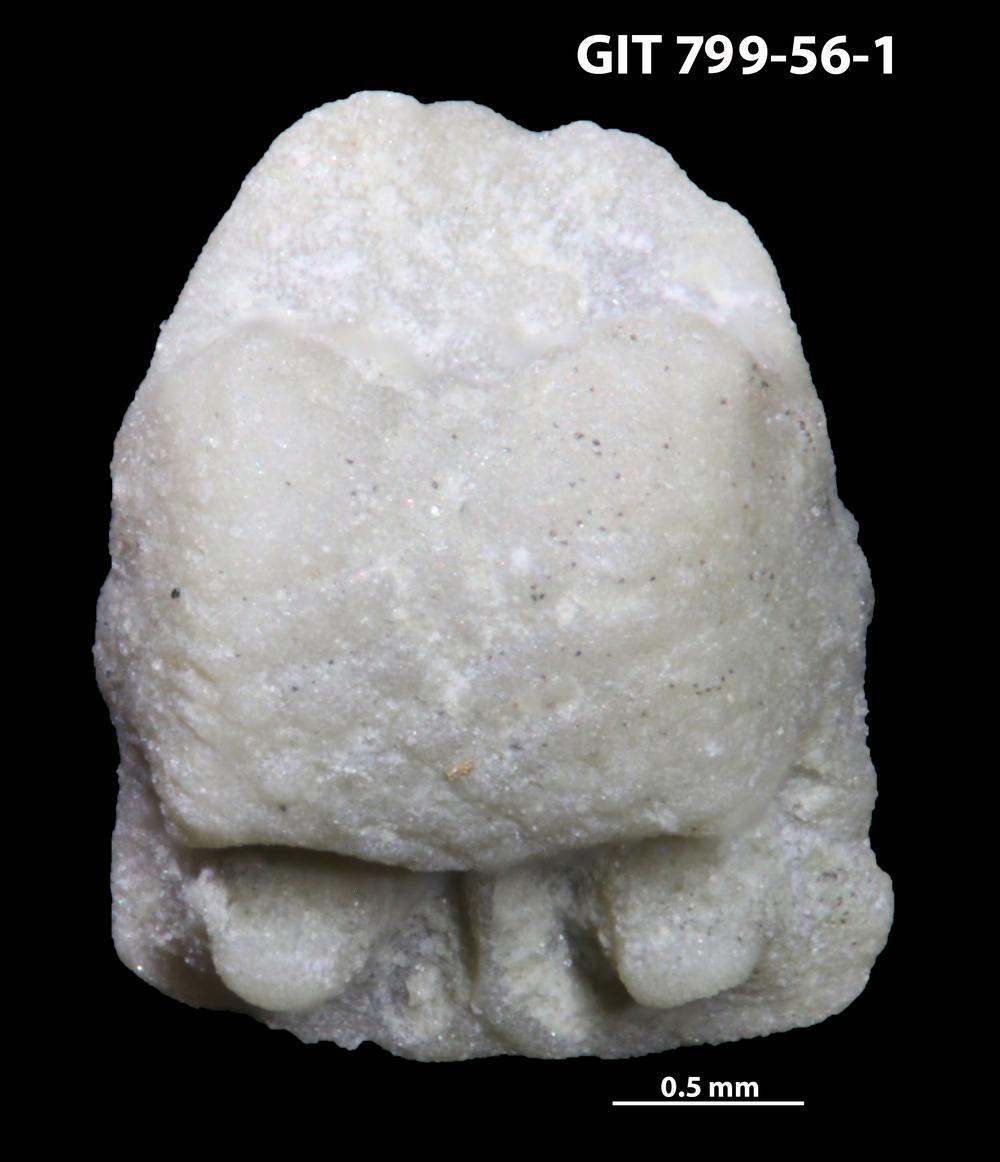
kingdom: Animalia
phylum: Echinodermata
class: Crinoidea
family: Cyclocystoididae
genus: Polytryphocycloides
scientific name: Polytryphocycloides
